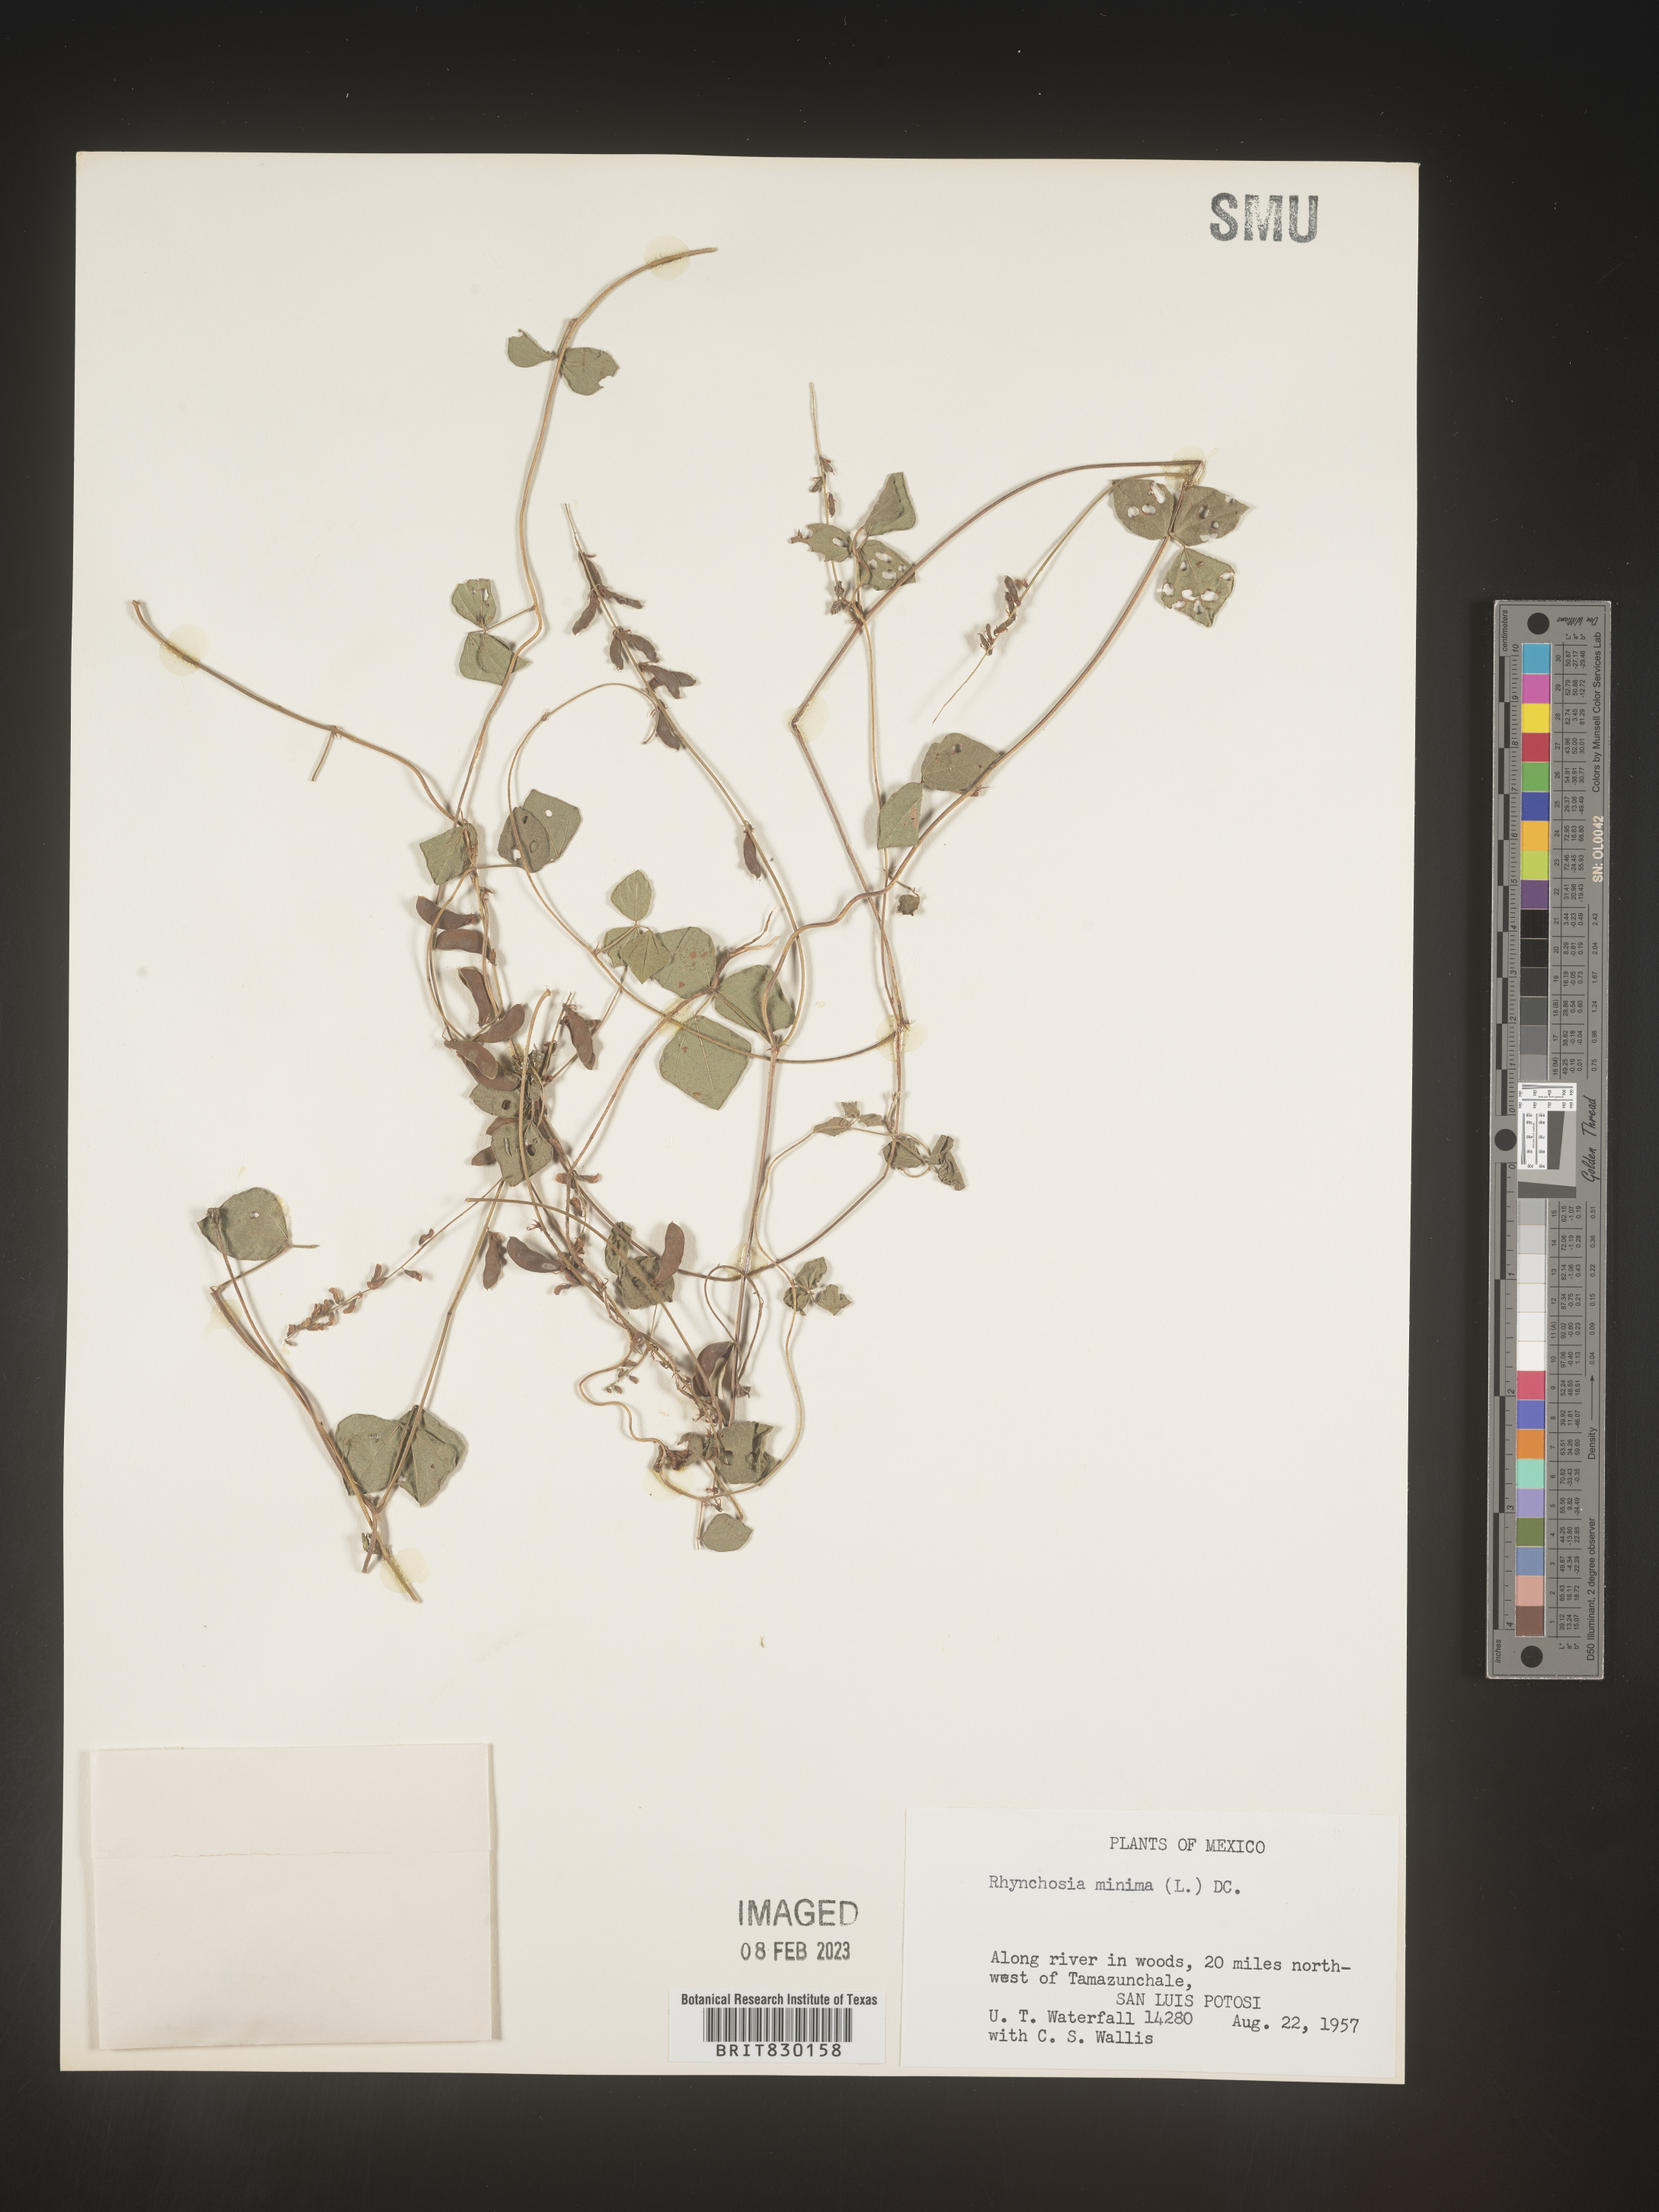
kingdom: Plantae
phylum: Tracheophyta
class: Magnoliopsida
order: Fabales
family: Fabaceae
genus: Rhynchosia
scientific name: Rhynchosia
